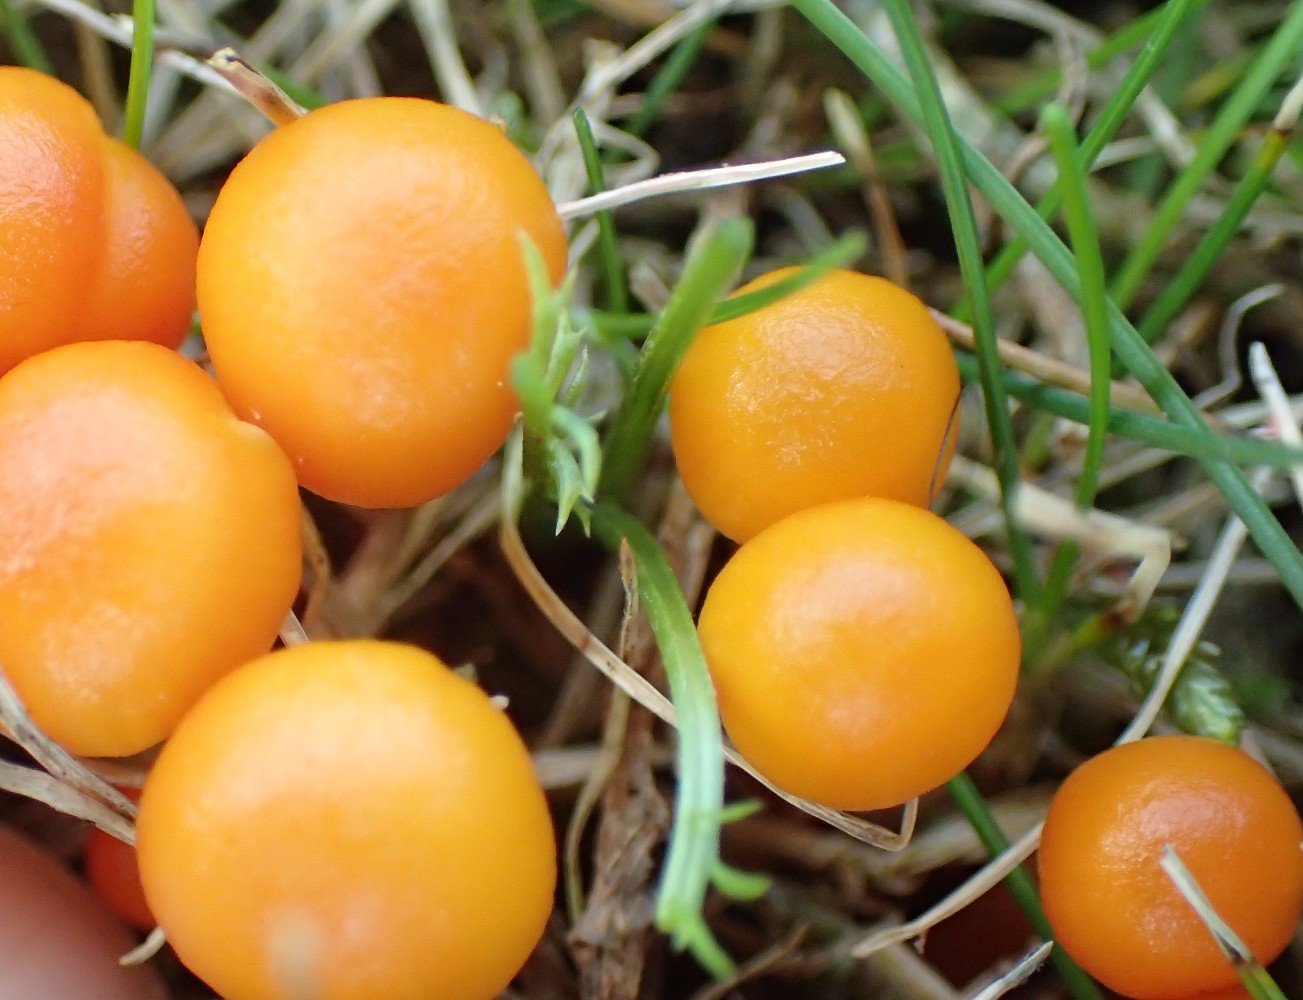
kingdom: Fungi
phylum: Basidiomycota
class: Agaricomycetes
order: Agaricales
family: Hygrophoraceae
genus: Hygrocybe
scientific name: Hygrocybe insipida
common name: liden vokshat
